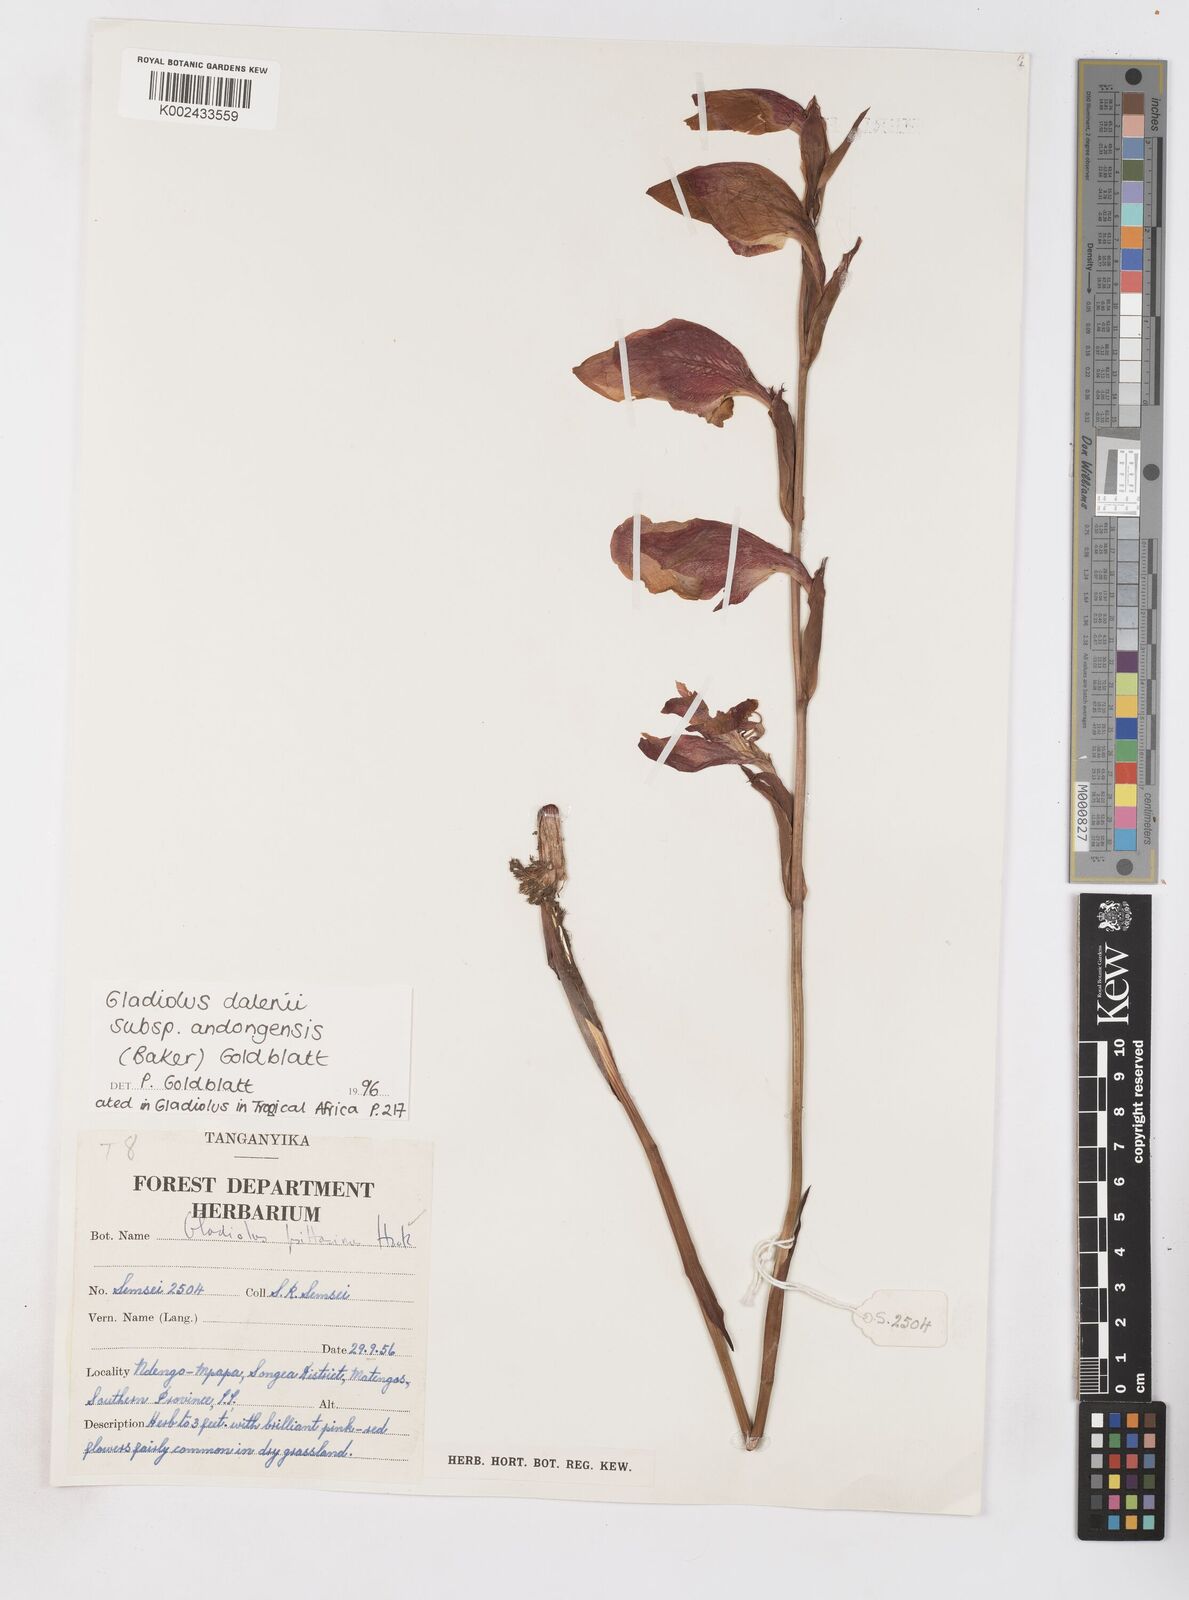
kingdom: Plantae
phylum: Tracheophyta
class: Liliopsida
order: Asparagales
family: Iridaceae
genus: Gladiolus
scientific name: Gladiolus dalenii
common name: Cornflag
